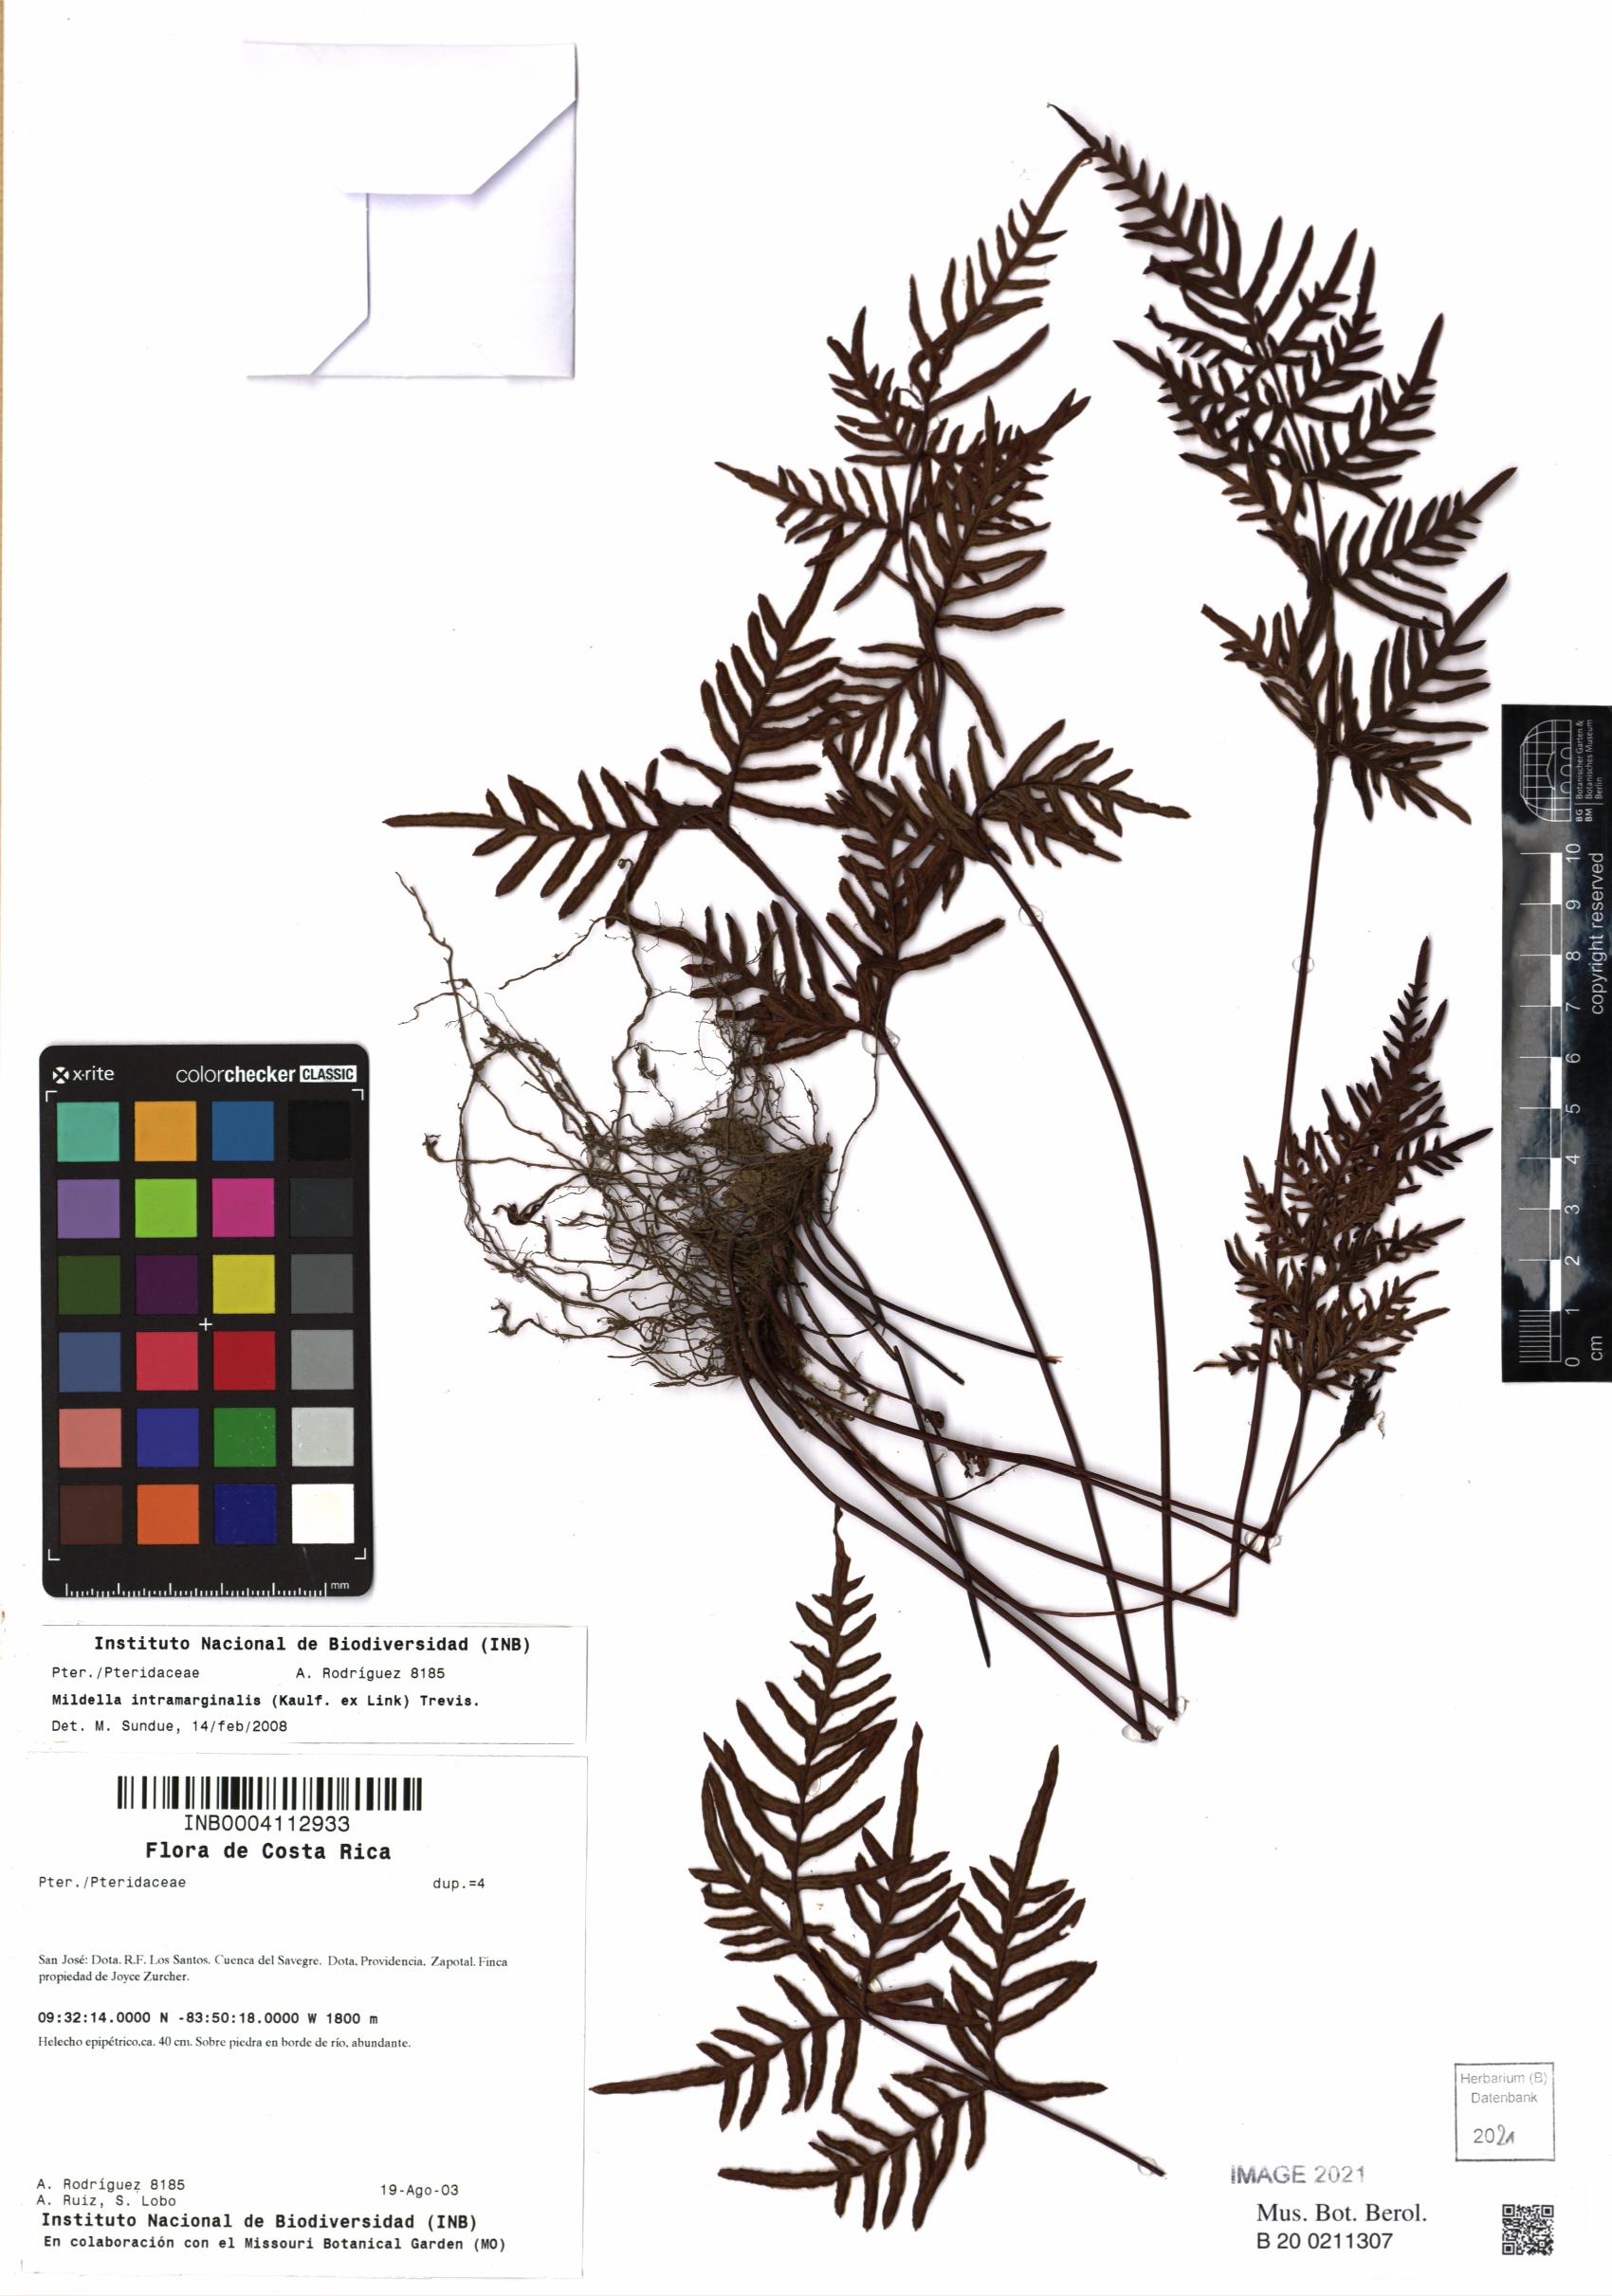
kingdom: Plantae
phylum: Tracheophyta
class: Polypodiopsida
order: Polypodiales
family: Pteridaceae
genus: Mildella
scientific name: Mildella intramarginalis
